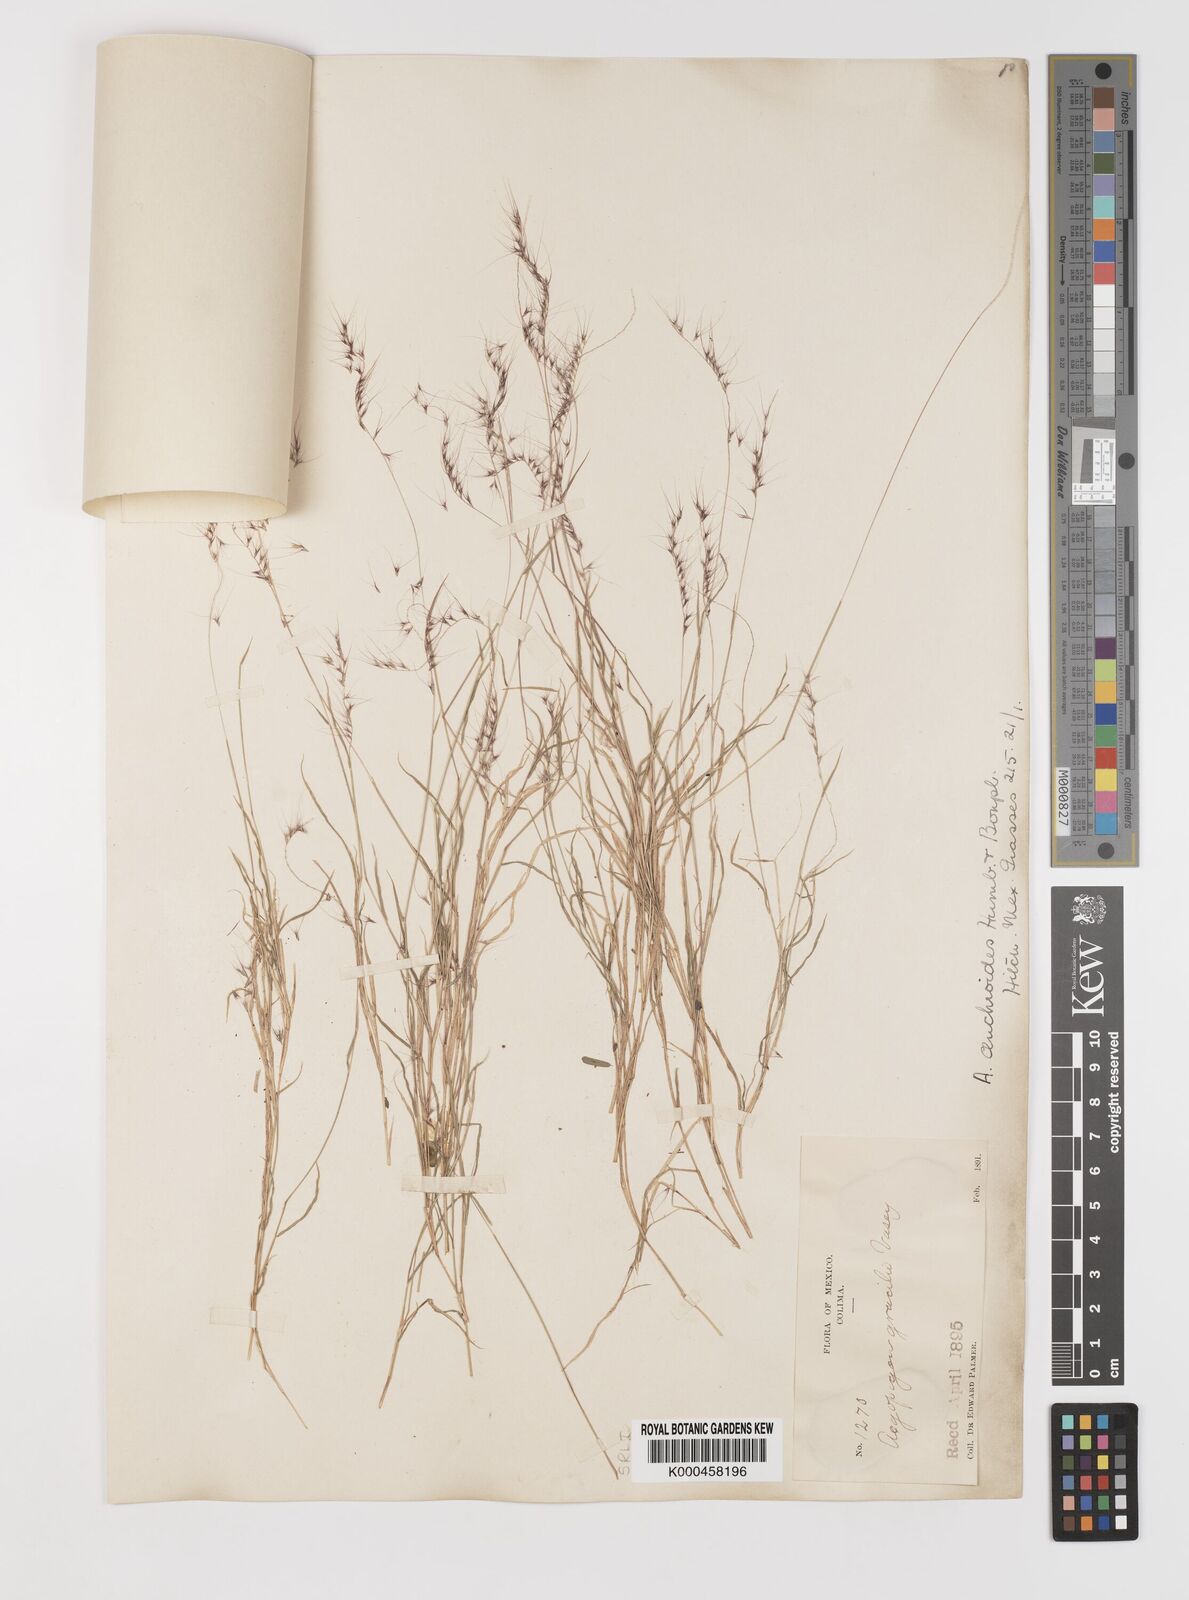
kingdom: Plantae
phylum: Tracheophyta
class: Liliopsida
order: Poales
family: Poaceae
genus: Muhlenbergia
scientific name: Muhlenbergia
